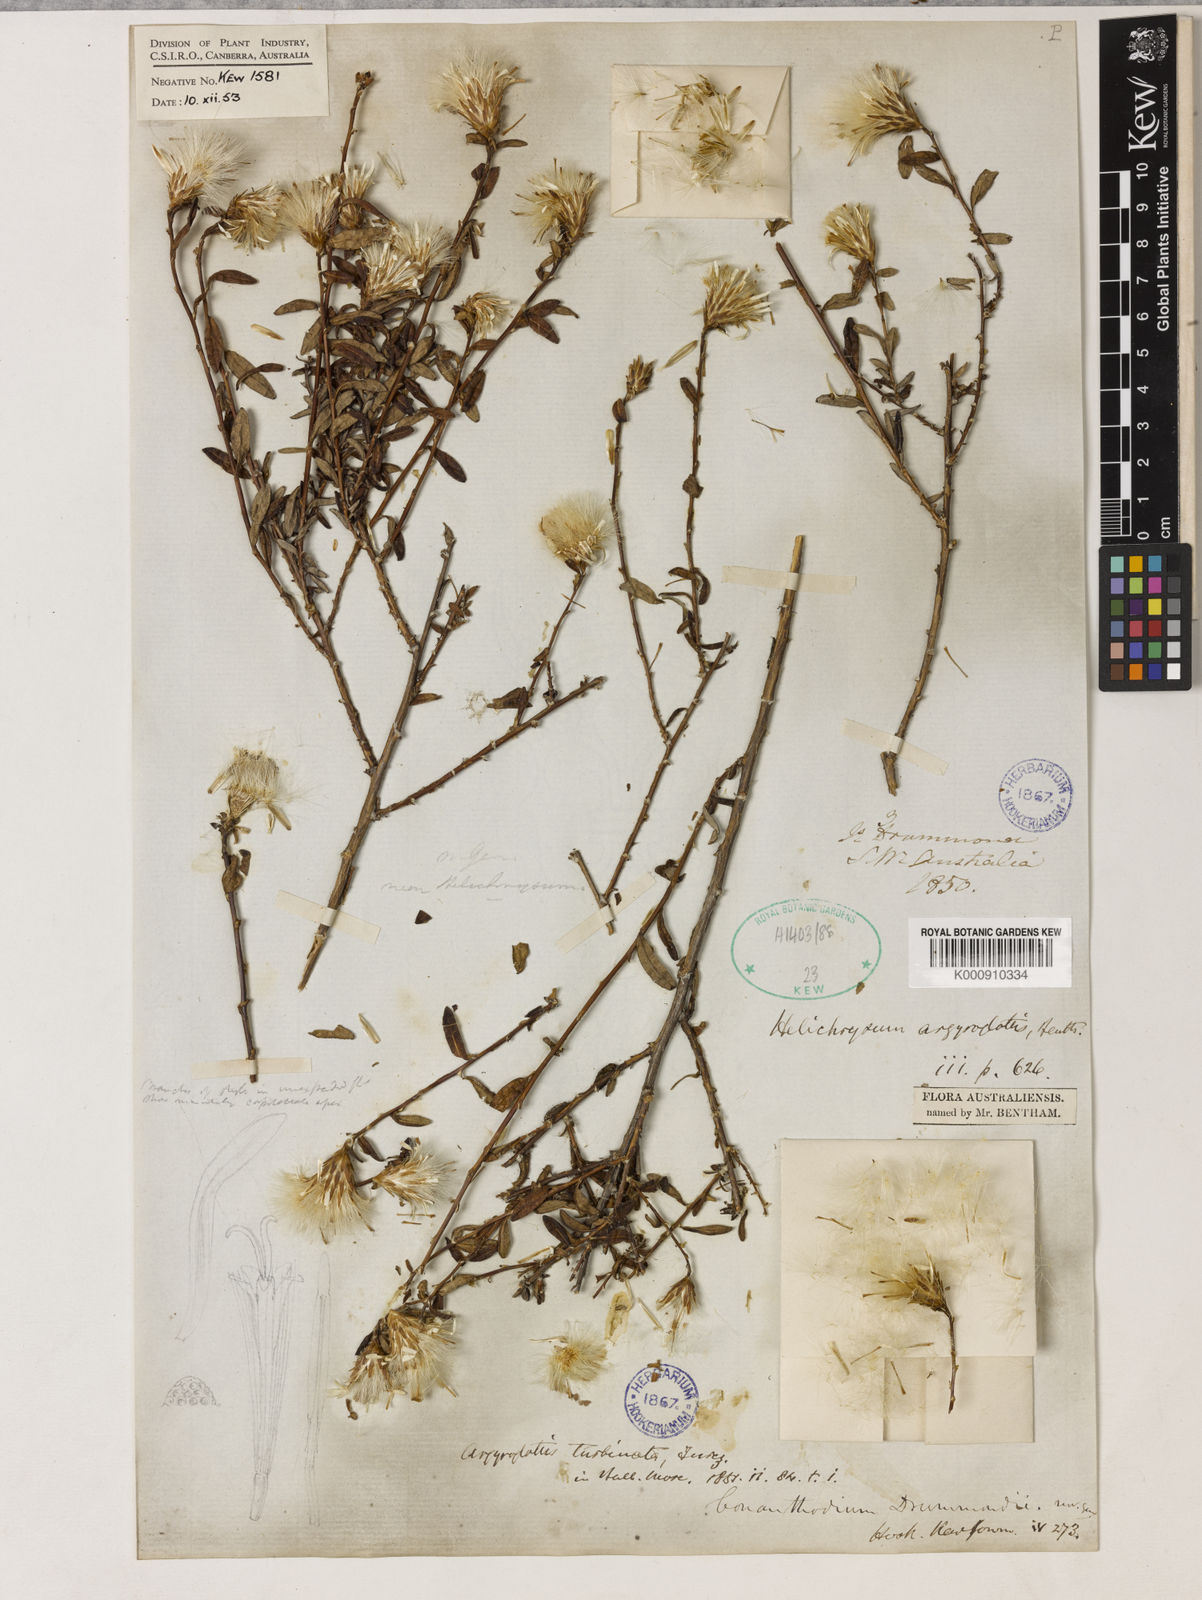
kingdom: Plantae
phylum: Tracheophyta
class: Magnoliopsida
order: Asterales
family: Asteraceae
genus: Argyroglottis
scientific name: Argyroglottis turbinata
